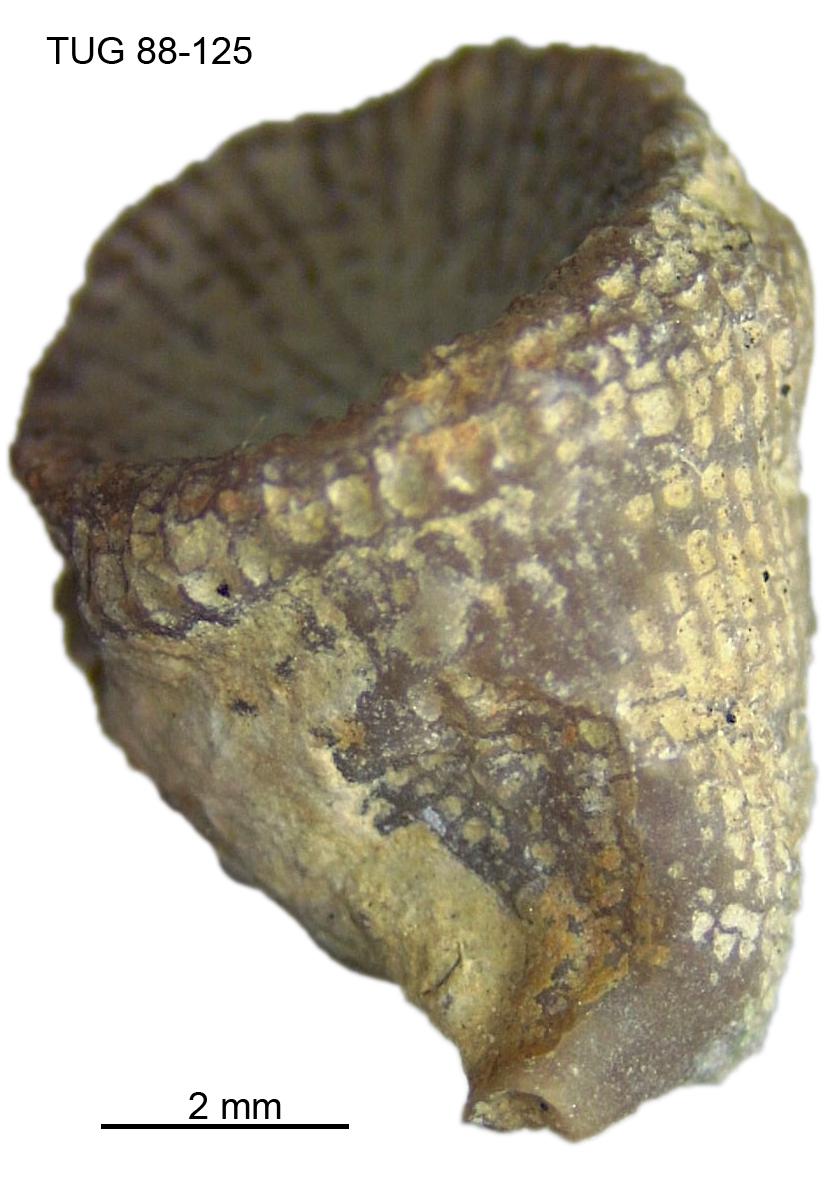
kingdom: Animalia
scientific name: Animalia
